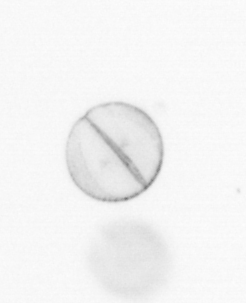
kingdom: Chromista
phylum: Ochrophyta
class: Bacillariophyceae
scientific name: Bacillariophyceae
